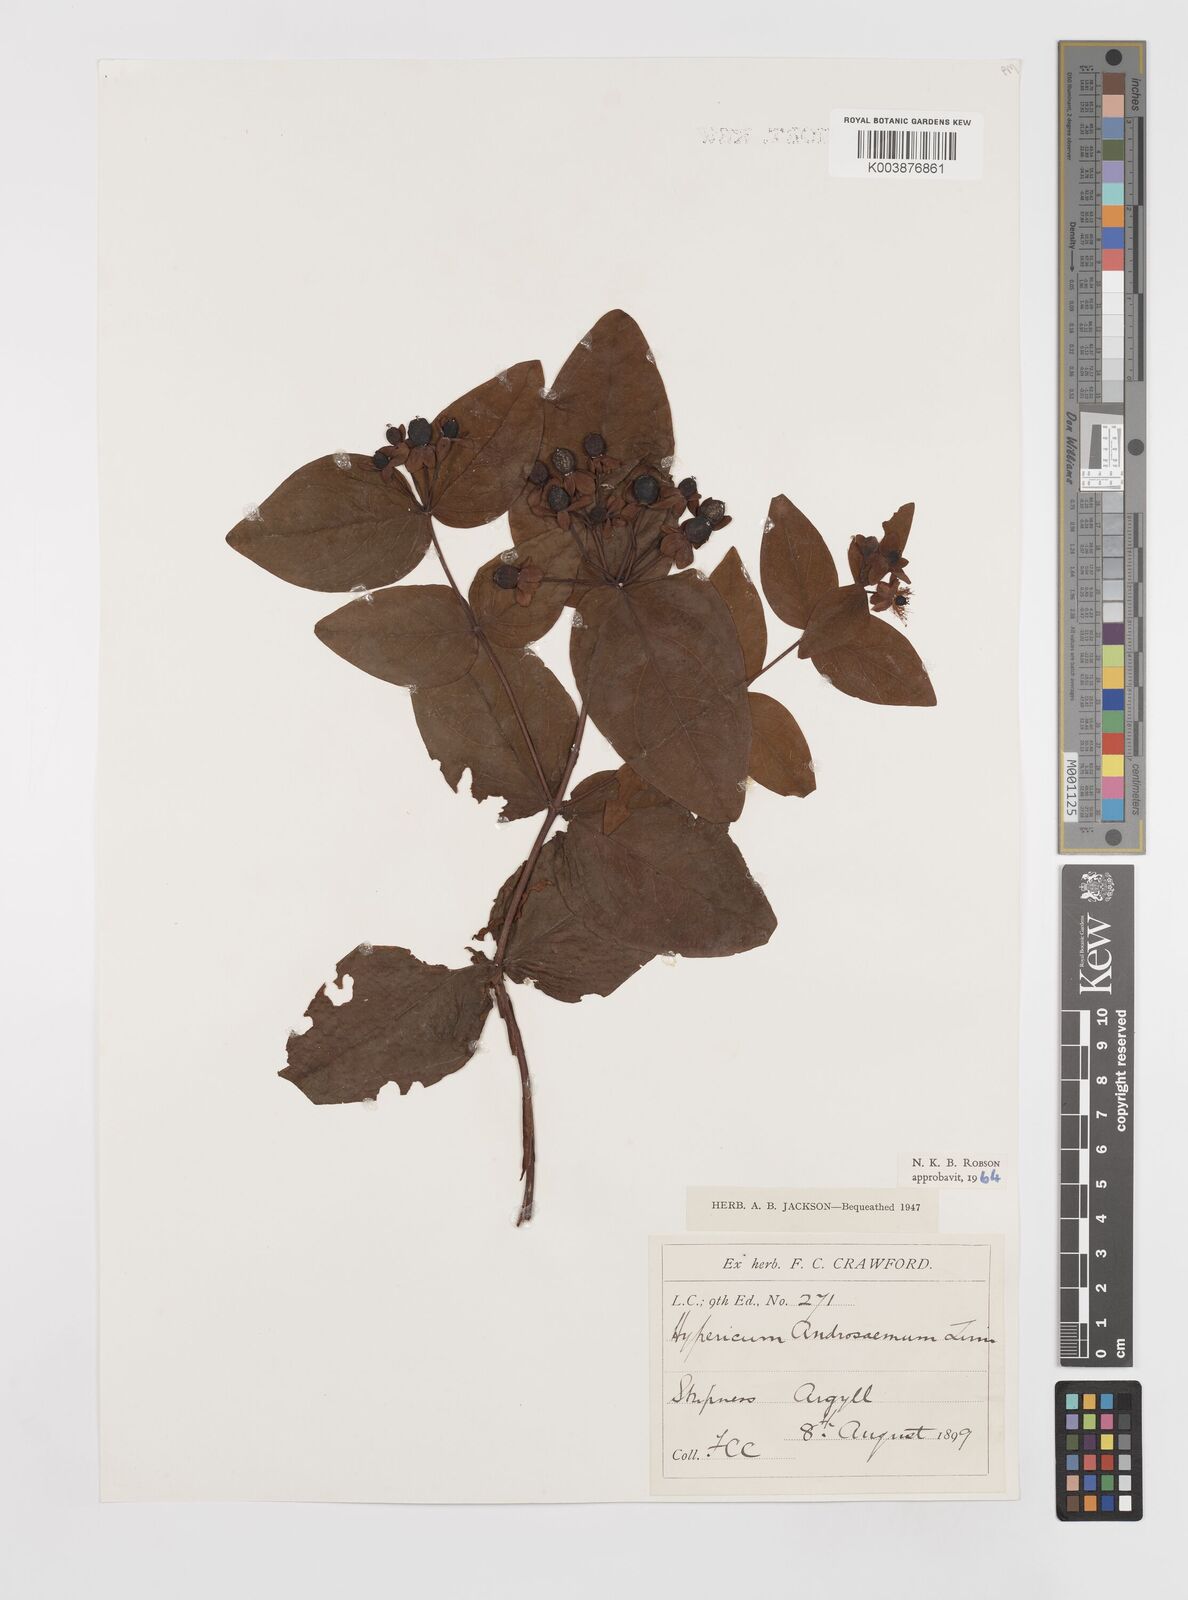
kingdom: Plantae
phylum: Tracheophyta
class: Magnoliopsida
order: Malpighiales
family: Hypericaceae
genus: Hypericum
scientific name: Hypericum androsaemum
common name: Sweet-amber
